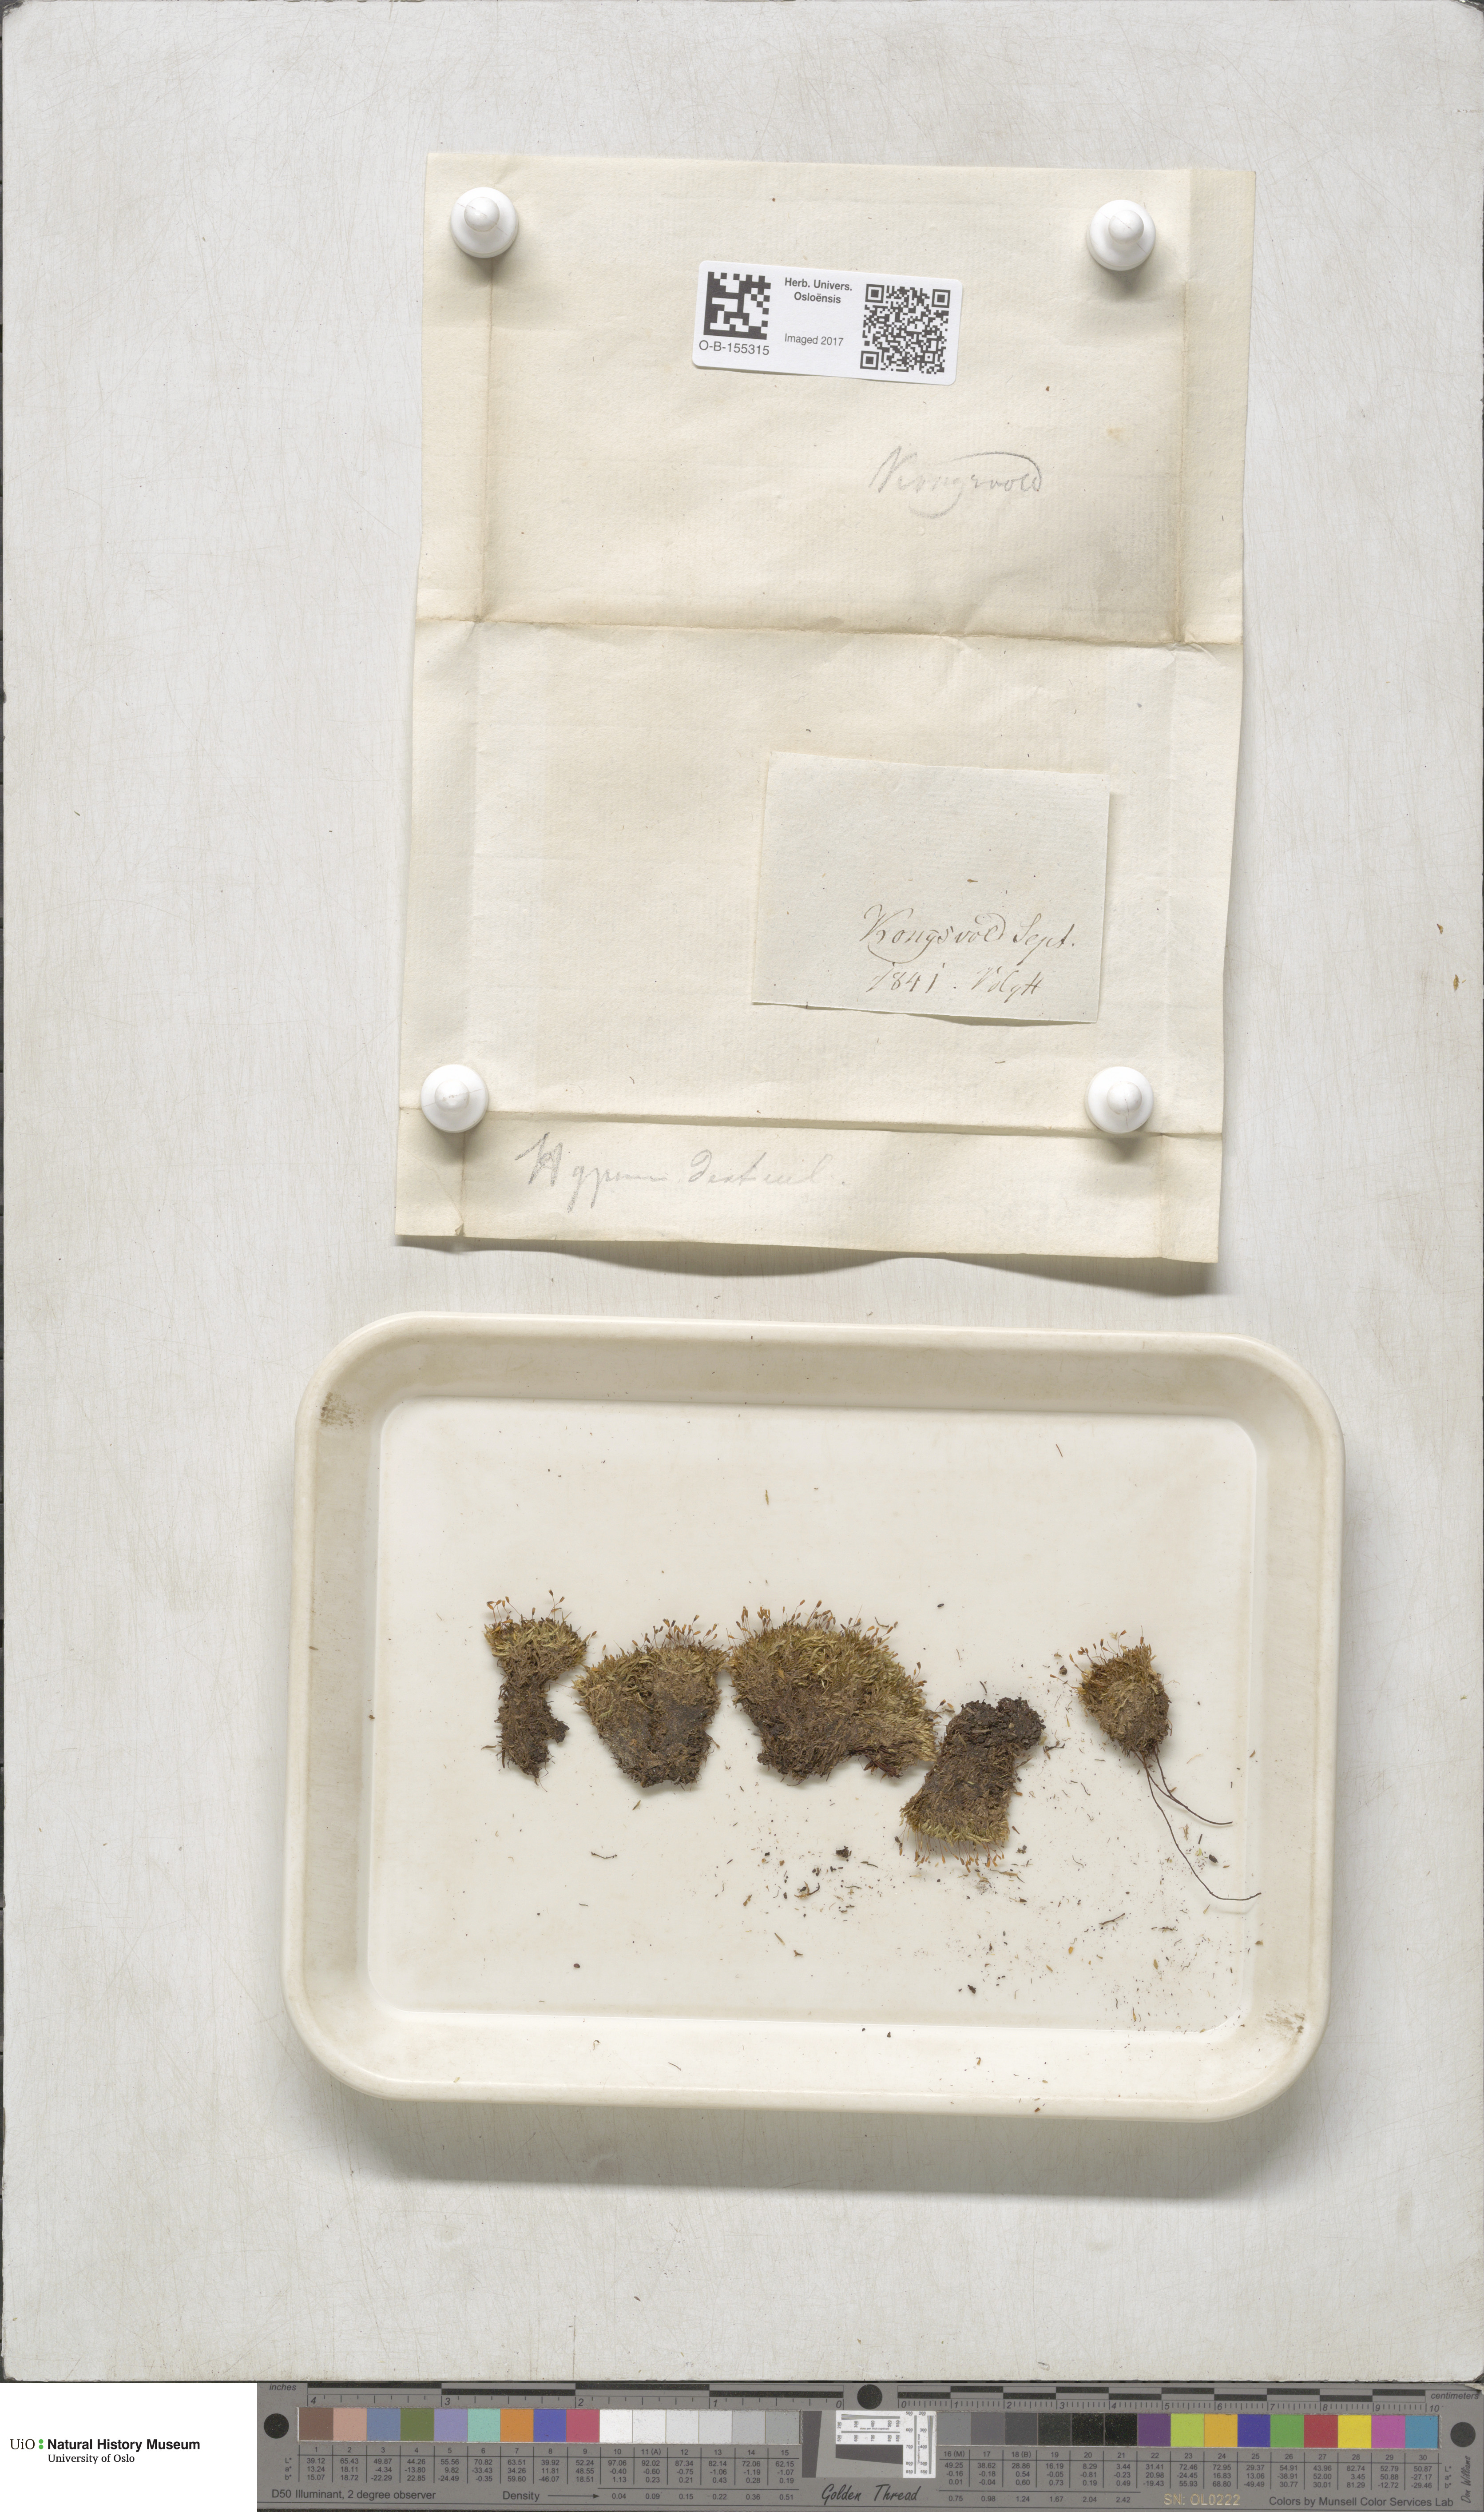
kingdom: Plantae
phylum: Bryophyta
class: Bryopsida
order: Hypnales
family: Plagiotheciaceae
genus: Plagiothecium
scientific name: Plagiothecium denticulatum
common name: Dented silk moss
